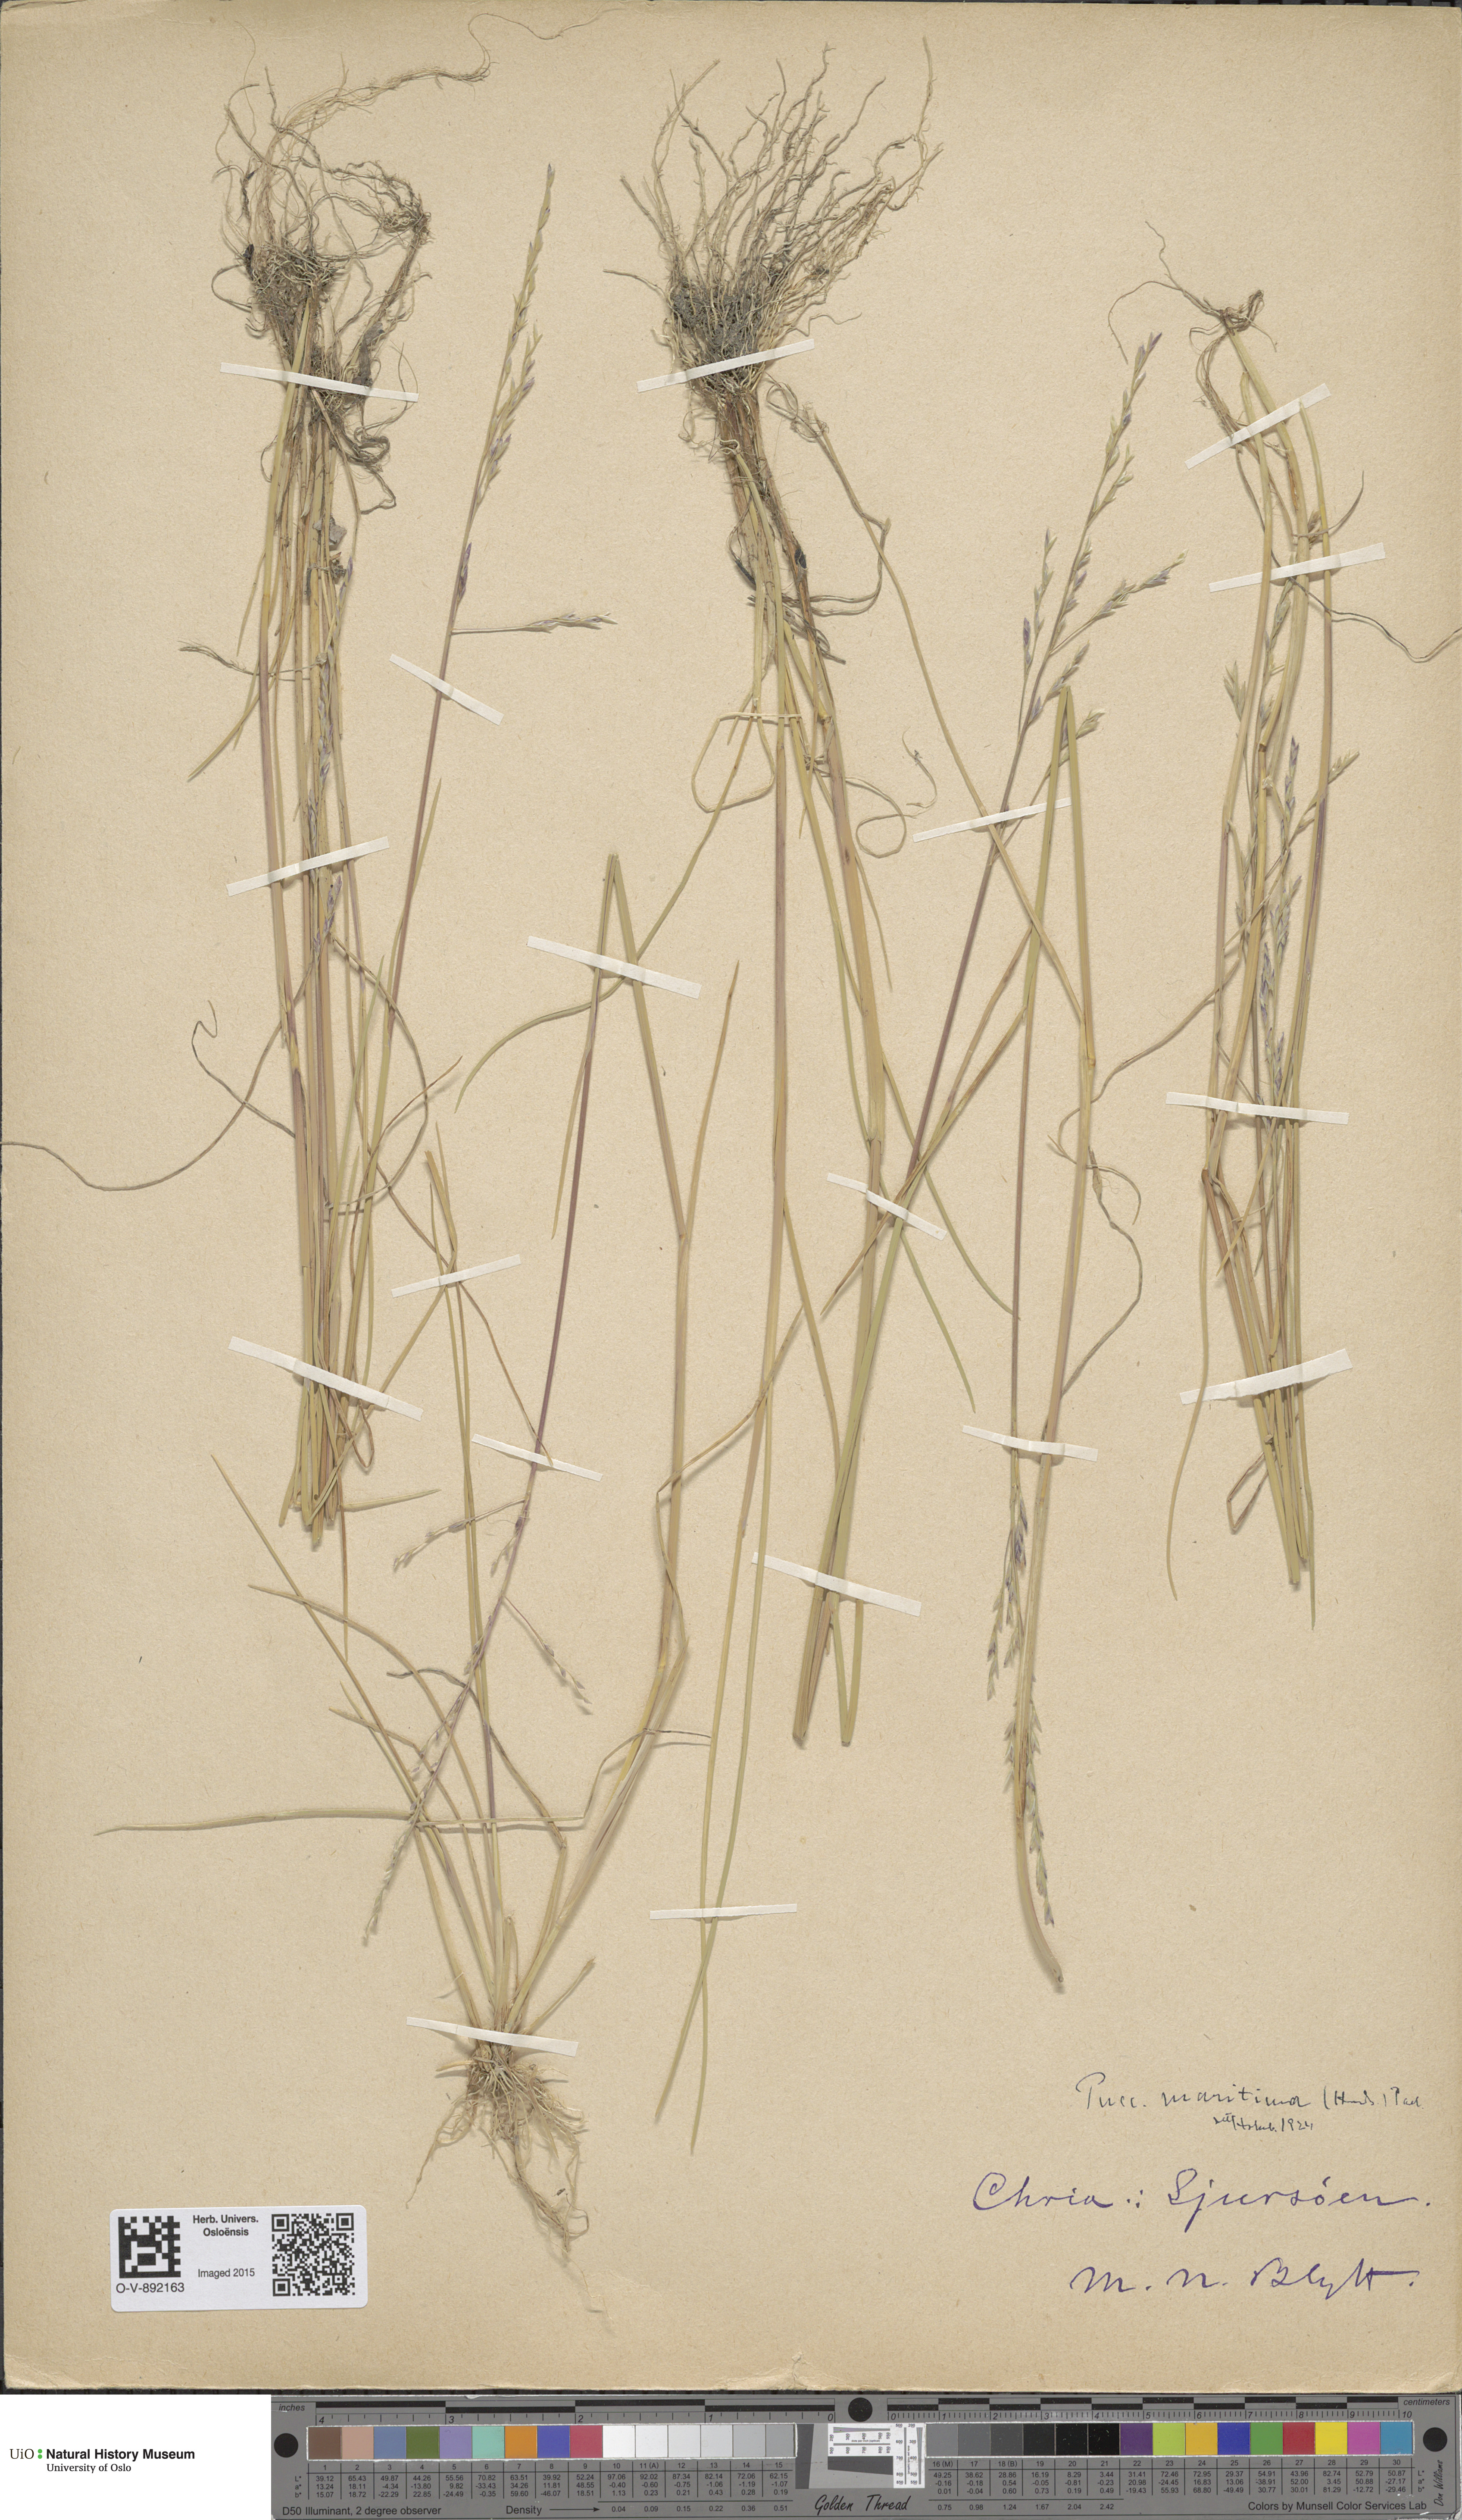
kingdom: Plantae
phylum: Tracheophyta
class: Liliopsida
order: Poales
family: Poaceae
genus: Puccinellia
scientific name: Puccinellia maritima
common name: Common saltmarsh grass
